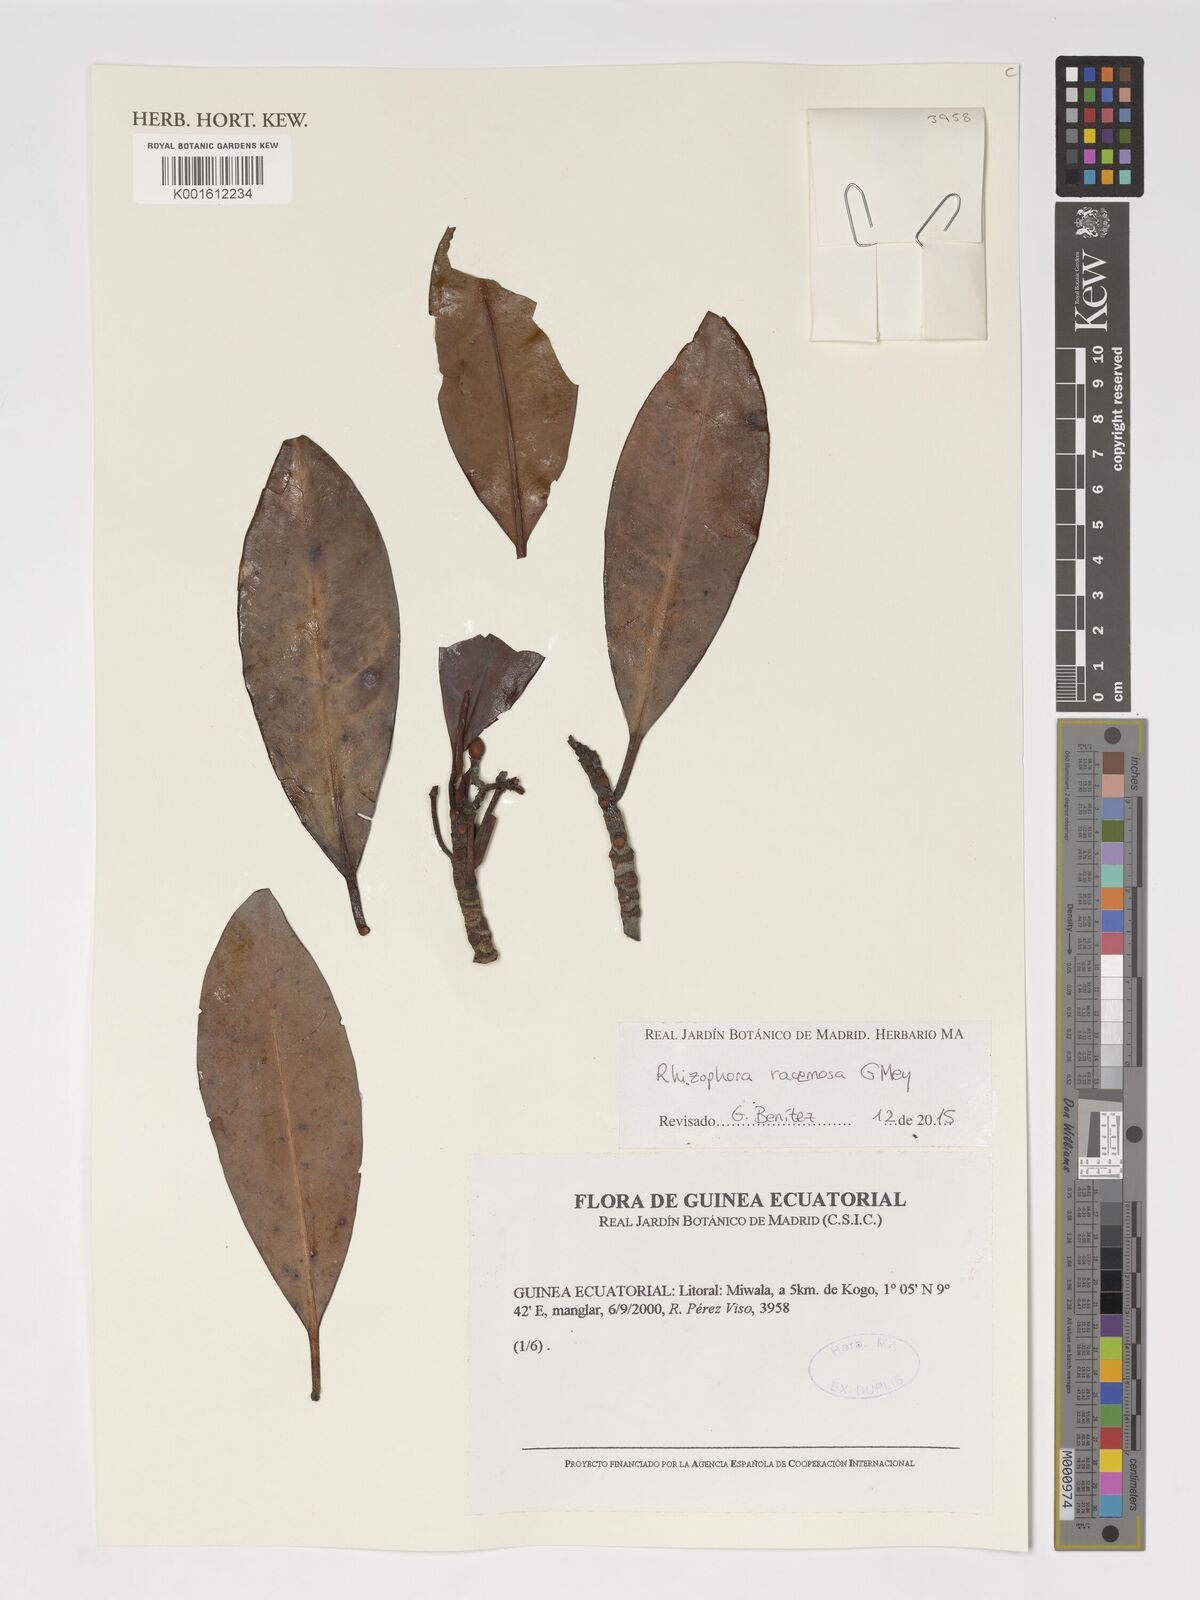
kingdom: Plantae
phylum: Tracheophyta
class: Magnoliopsida
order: Malpighiales
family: Rhizophoraceae
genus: Rhizophora
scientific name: Rhizophora racemosa
